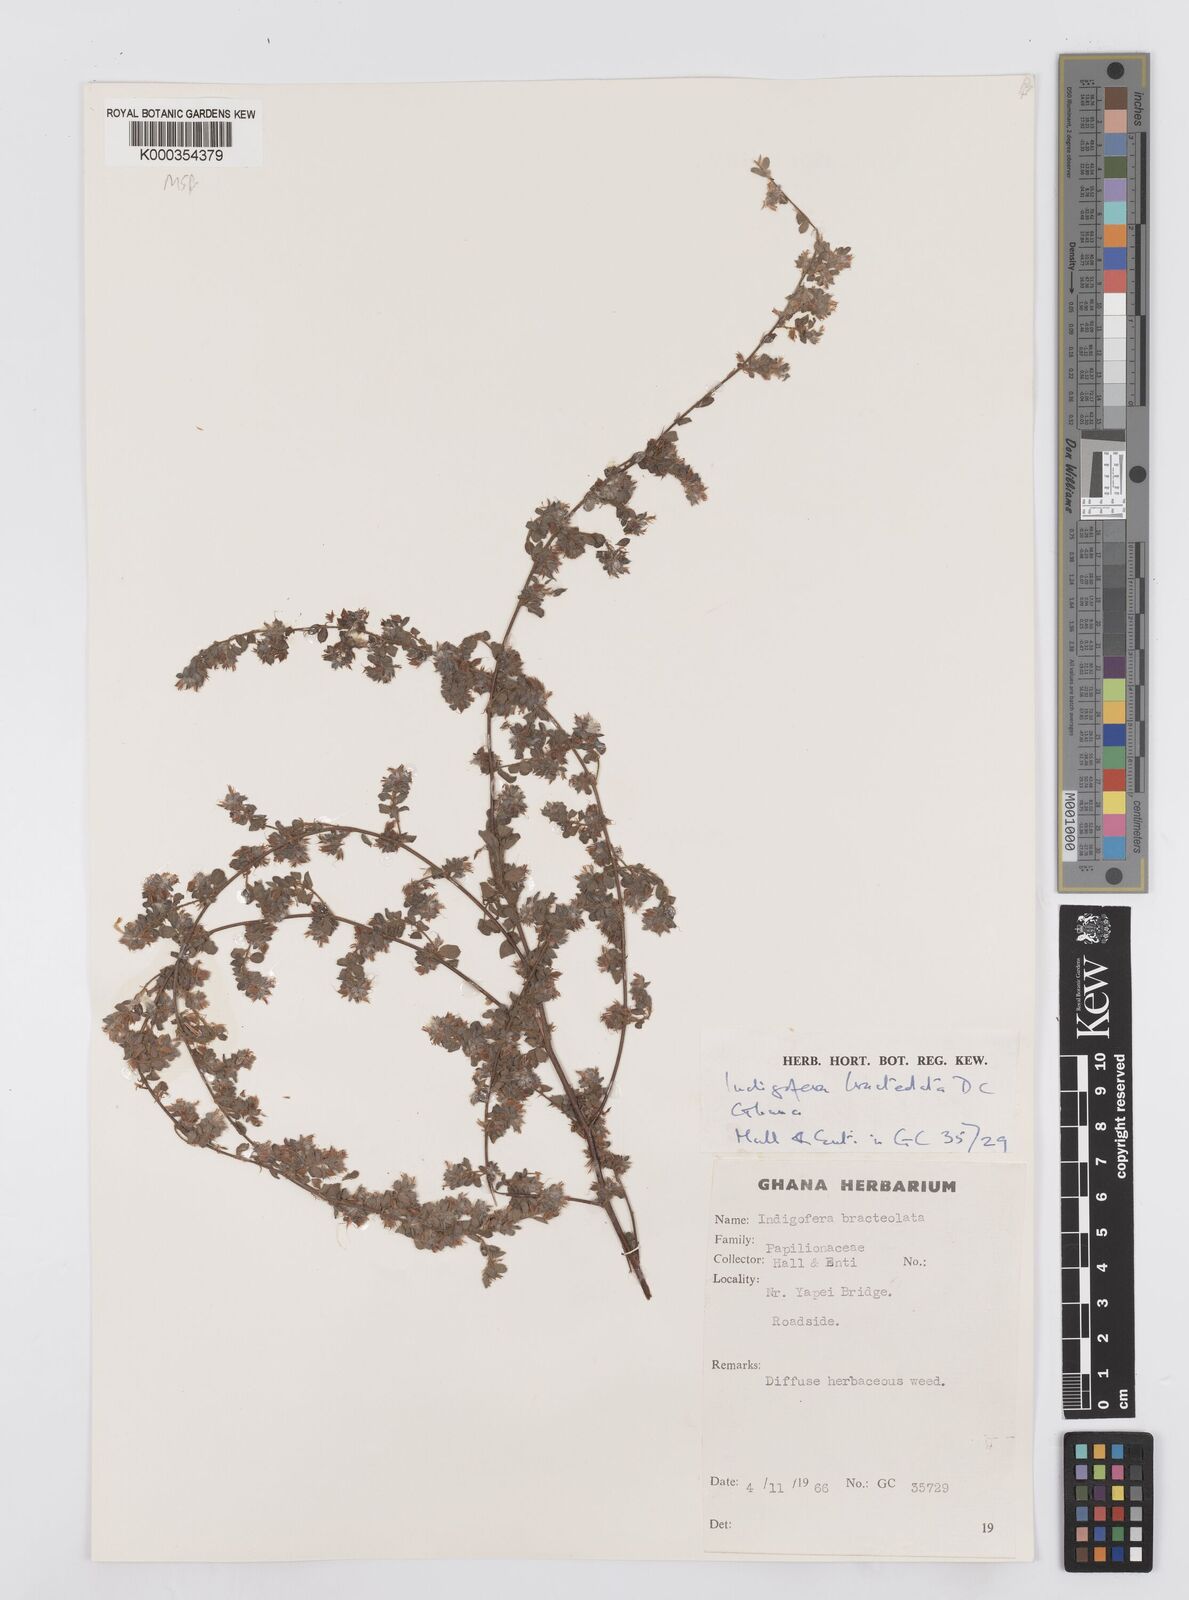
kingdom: Plantae
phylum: Tracheophyta
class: Magnoliopsida
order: Fabales
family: Fabaceae
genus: Indigofera
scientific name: Indigofera bracteolata
